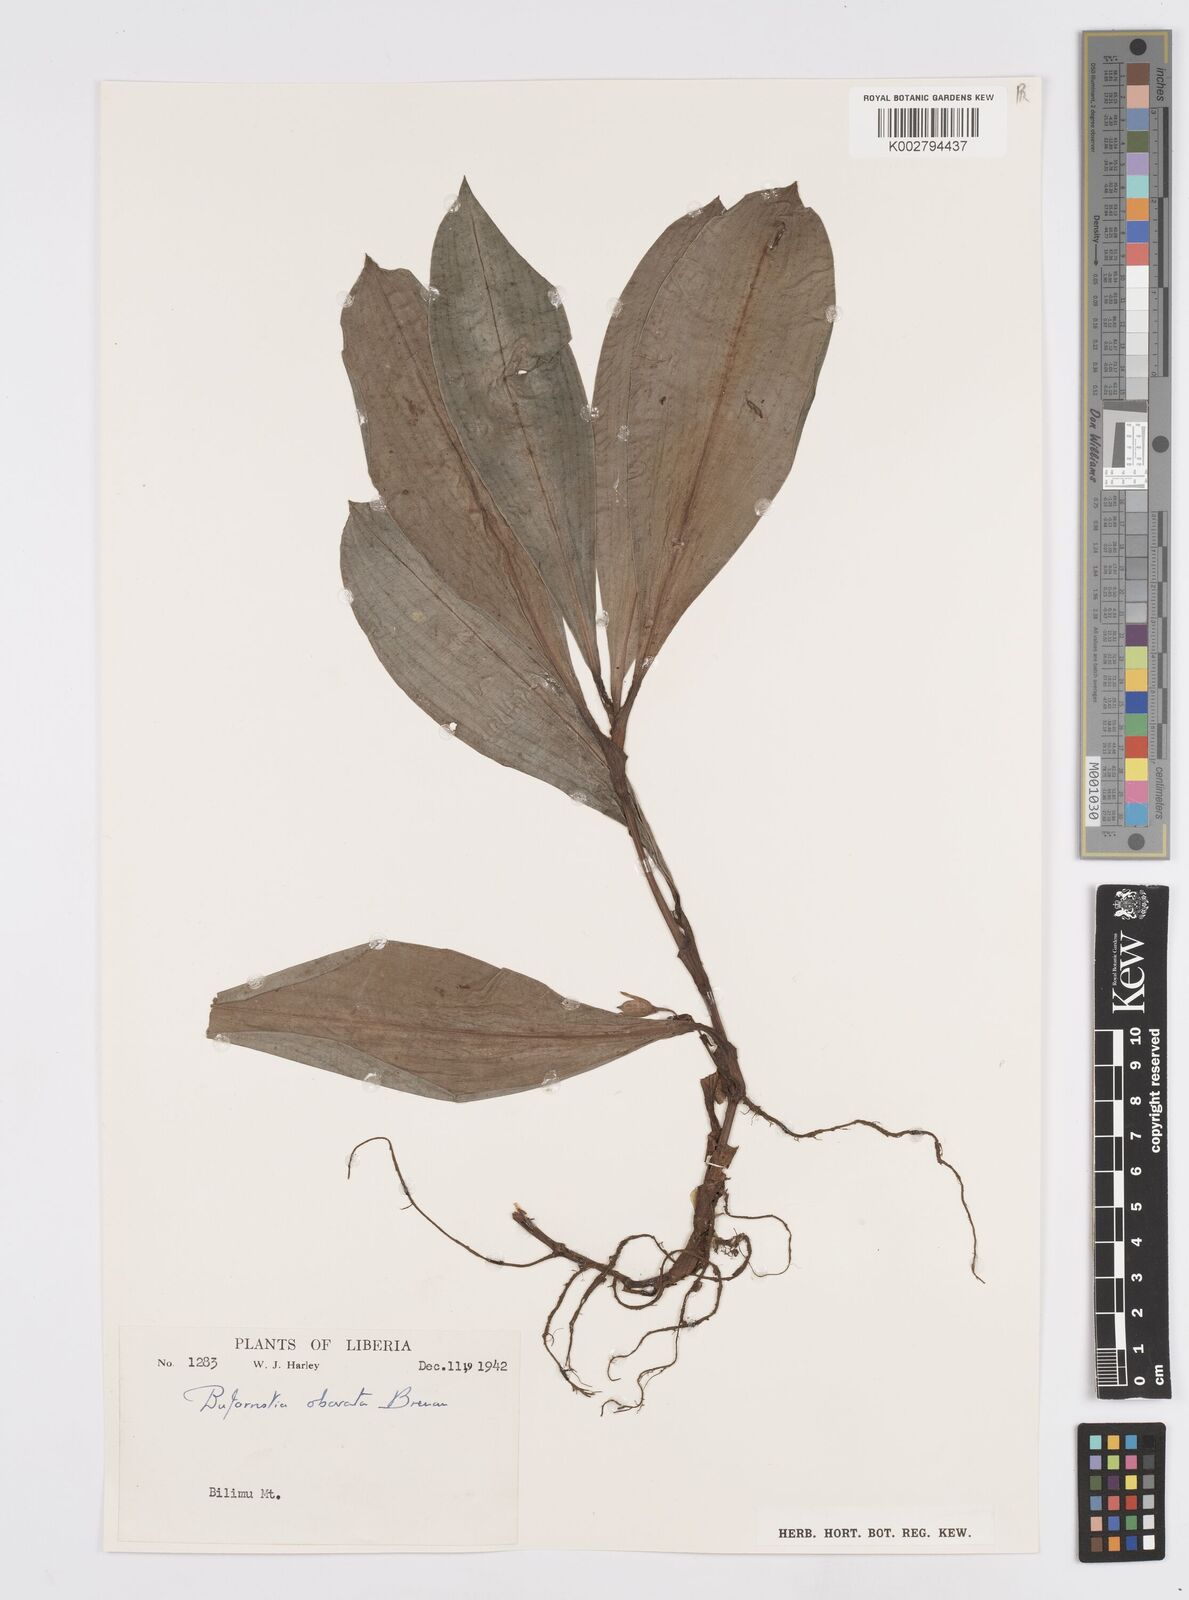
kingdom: Plantae
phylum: Tracheophyta
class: Liliopsida
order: Commelinales
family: Commelinaceae
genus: Buforrestia
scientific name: Buforrestia obovata
